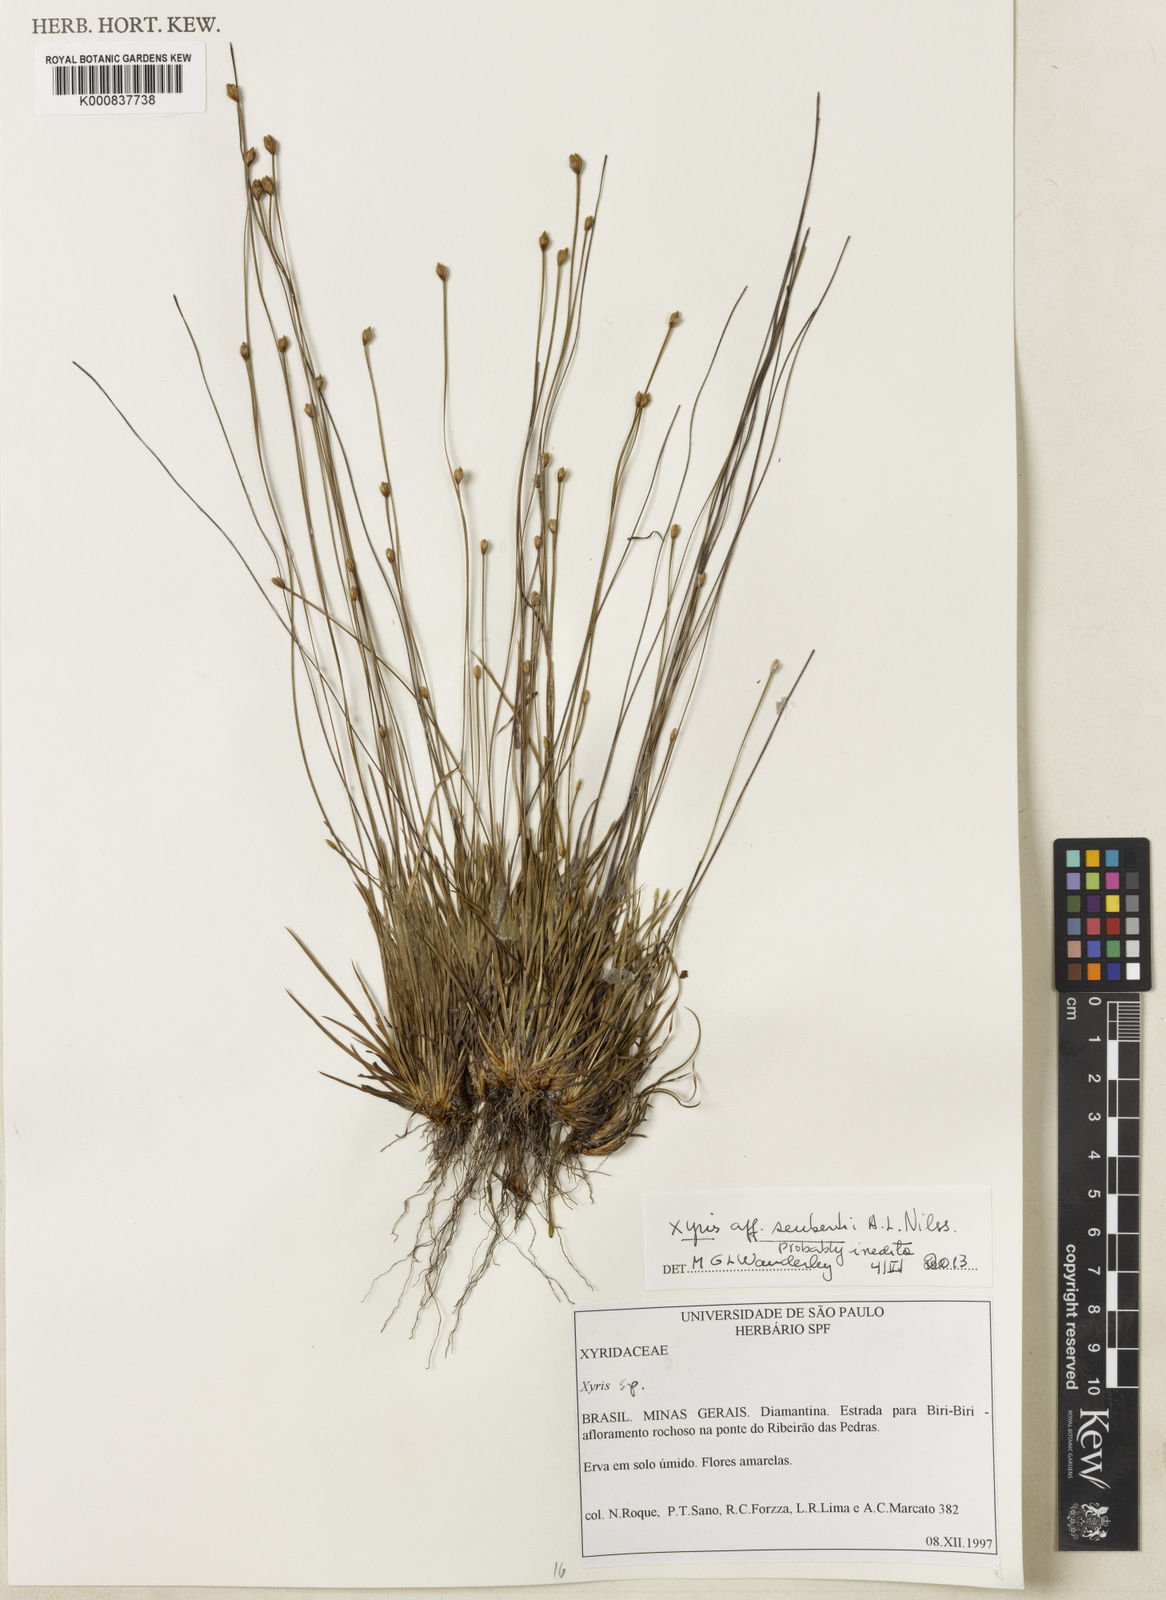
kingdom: Plantae
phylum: Tracheophyta
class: Liliopsida
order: Poales
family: Xyridaceae
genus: Xyris
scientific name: Xyris
